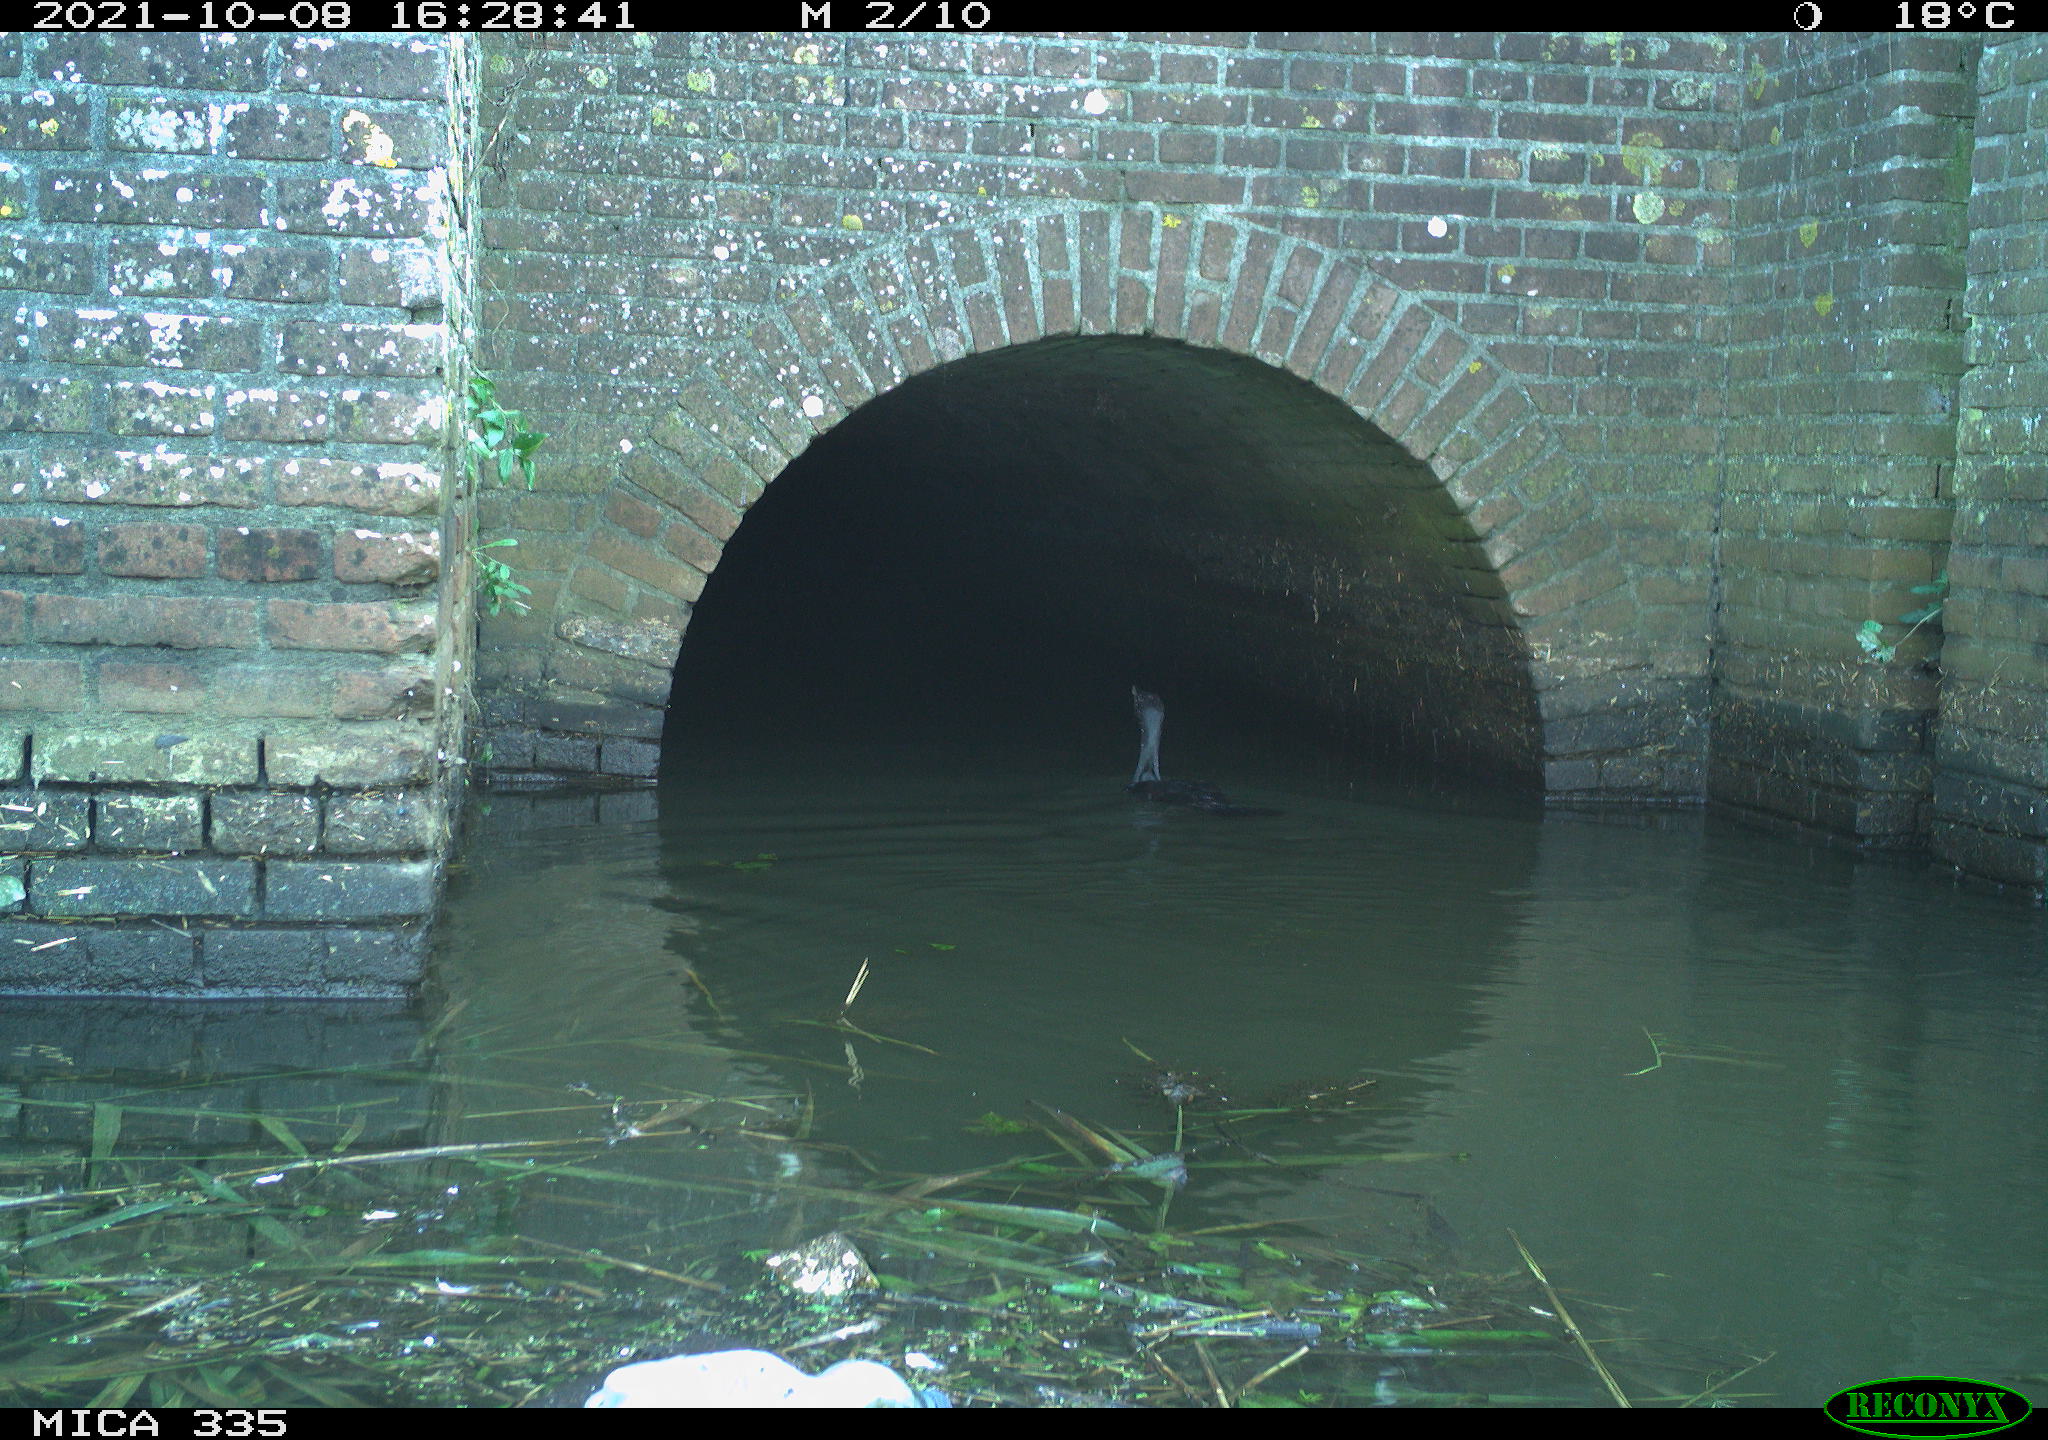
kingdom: Animalia
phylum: Chordata
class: Aves
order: Suliformes
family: Phalacrocoracidae
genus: Phalacrocorax
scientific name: Phalacrocorax carbo
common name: Great cormorant
